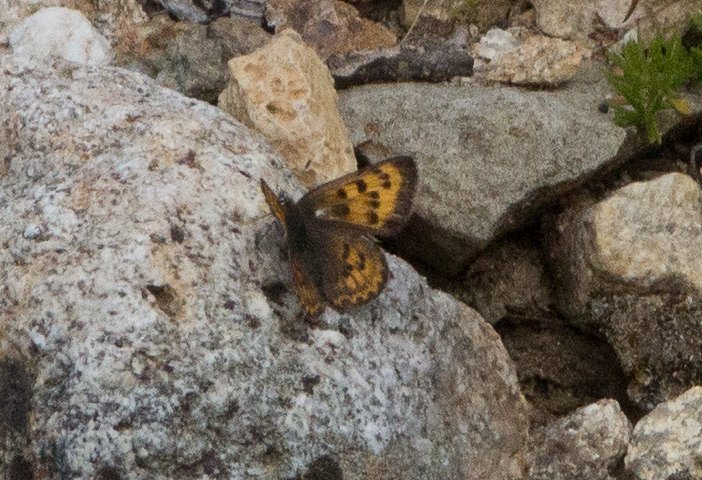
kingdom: Animalia
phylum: Arthropoda
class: Insecta
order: Lepidoptera
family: Sesiidae
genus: Sesia
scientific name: Sesia Lycaena helloides
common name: Purplish Copper
